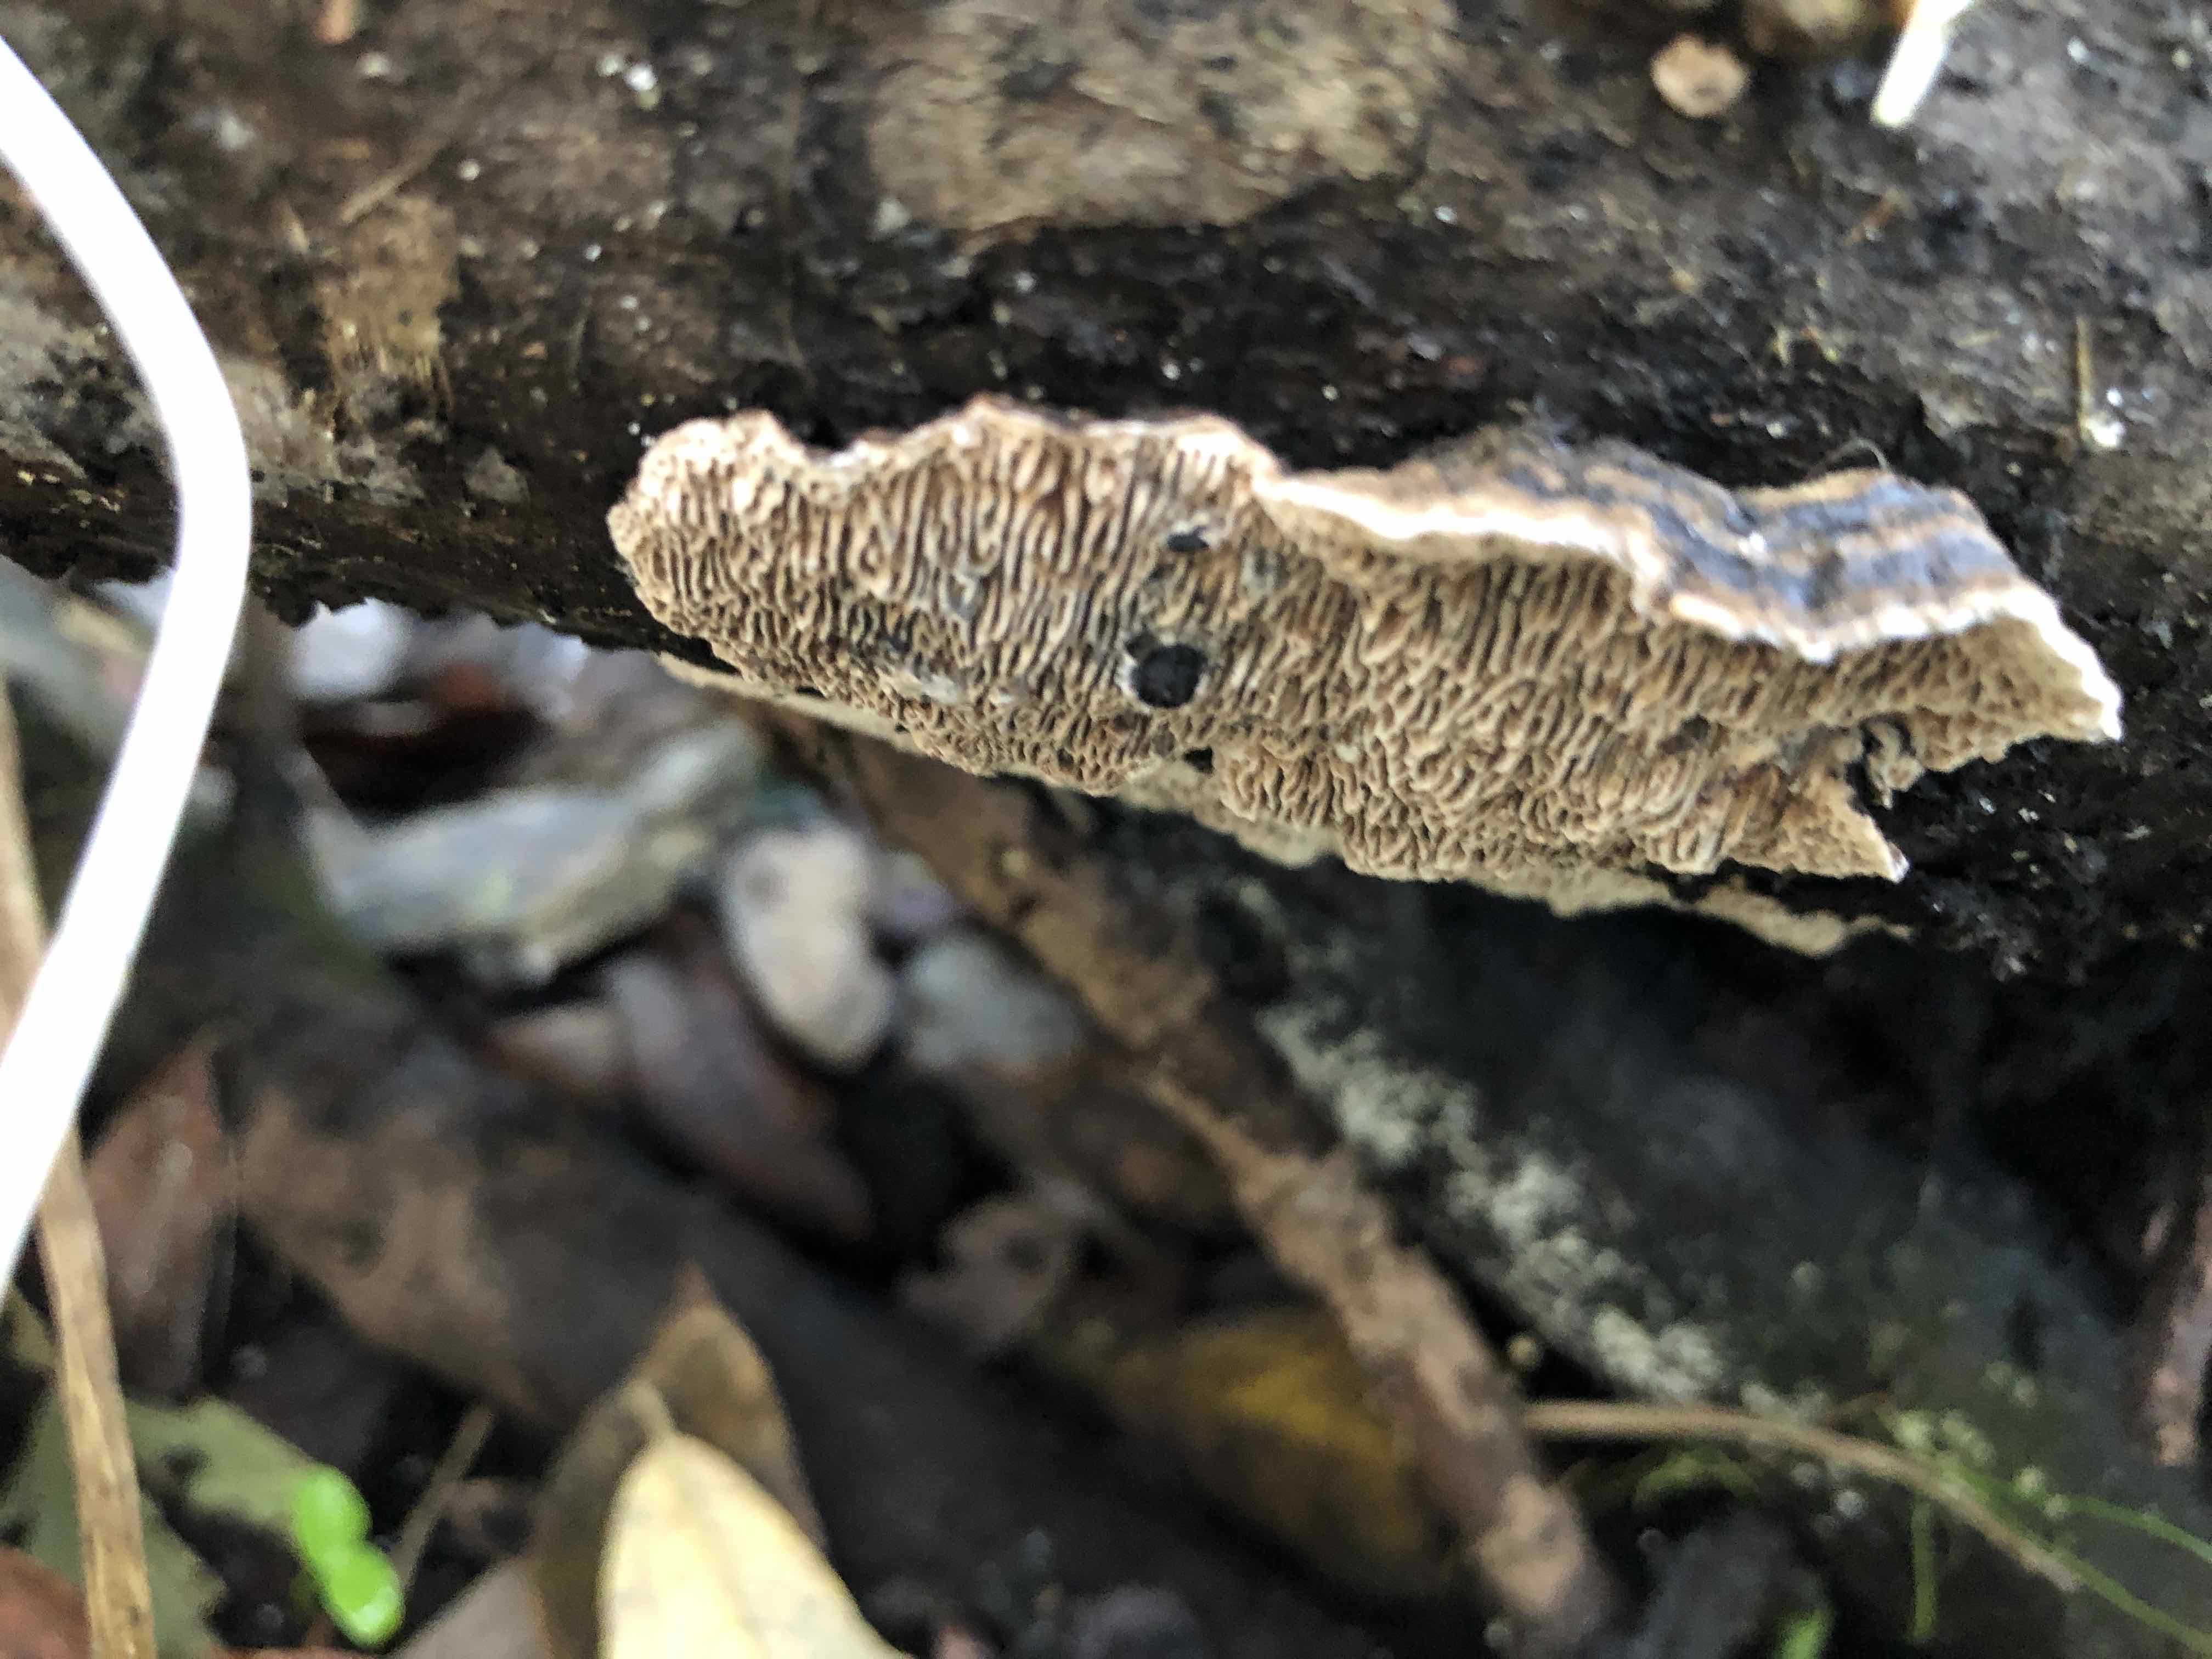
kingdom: Fungi
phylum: Basidiomycota
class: Agaricomycetes
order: Polyporales
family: Polyporaceae
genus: Podofomes
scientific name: Podofomes mollis
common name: blød begporesvamp
